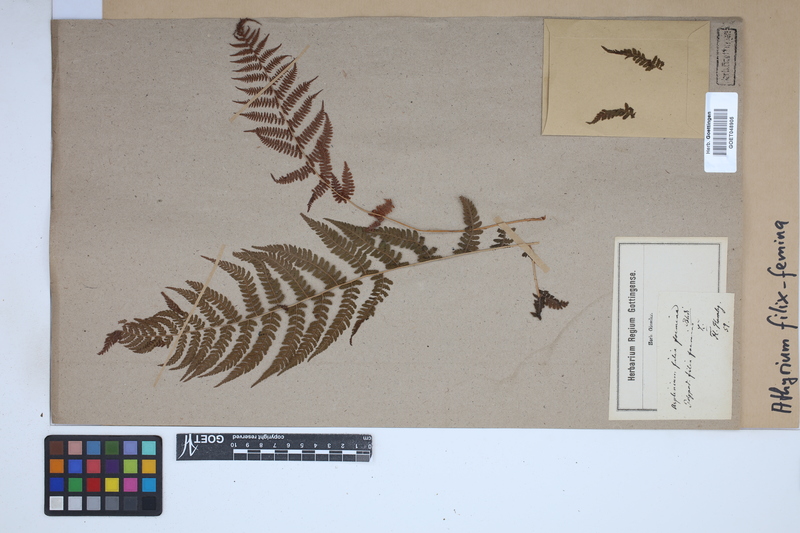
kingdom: Plantae
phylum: Tracheophyta
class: Polypodiopsida
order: Polypodiales
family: Athyriaceae
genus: Athyrium
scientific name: Athyrium filix-femina
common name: Lady fern
